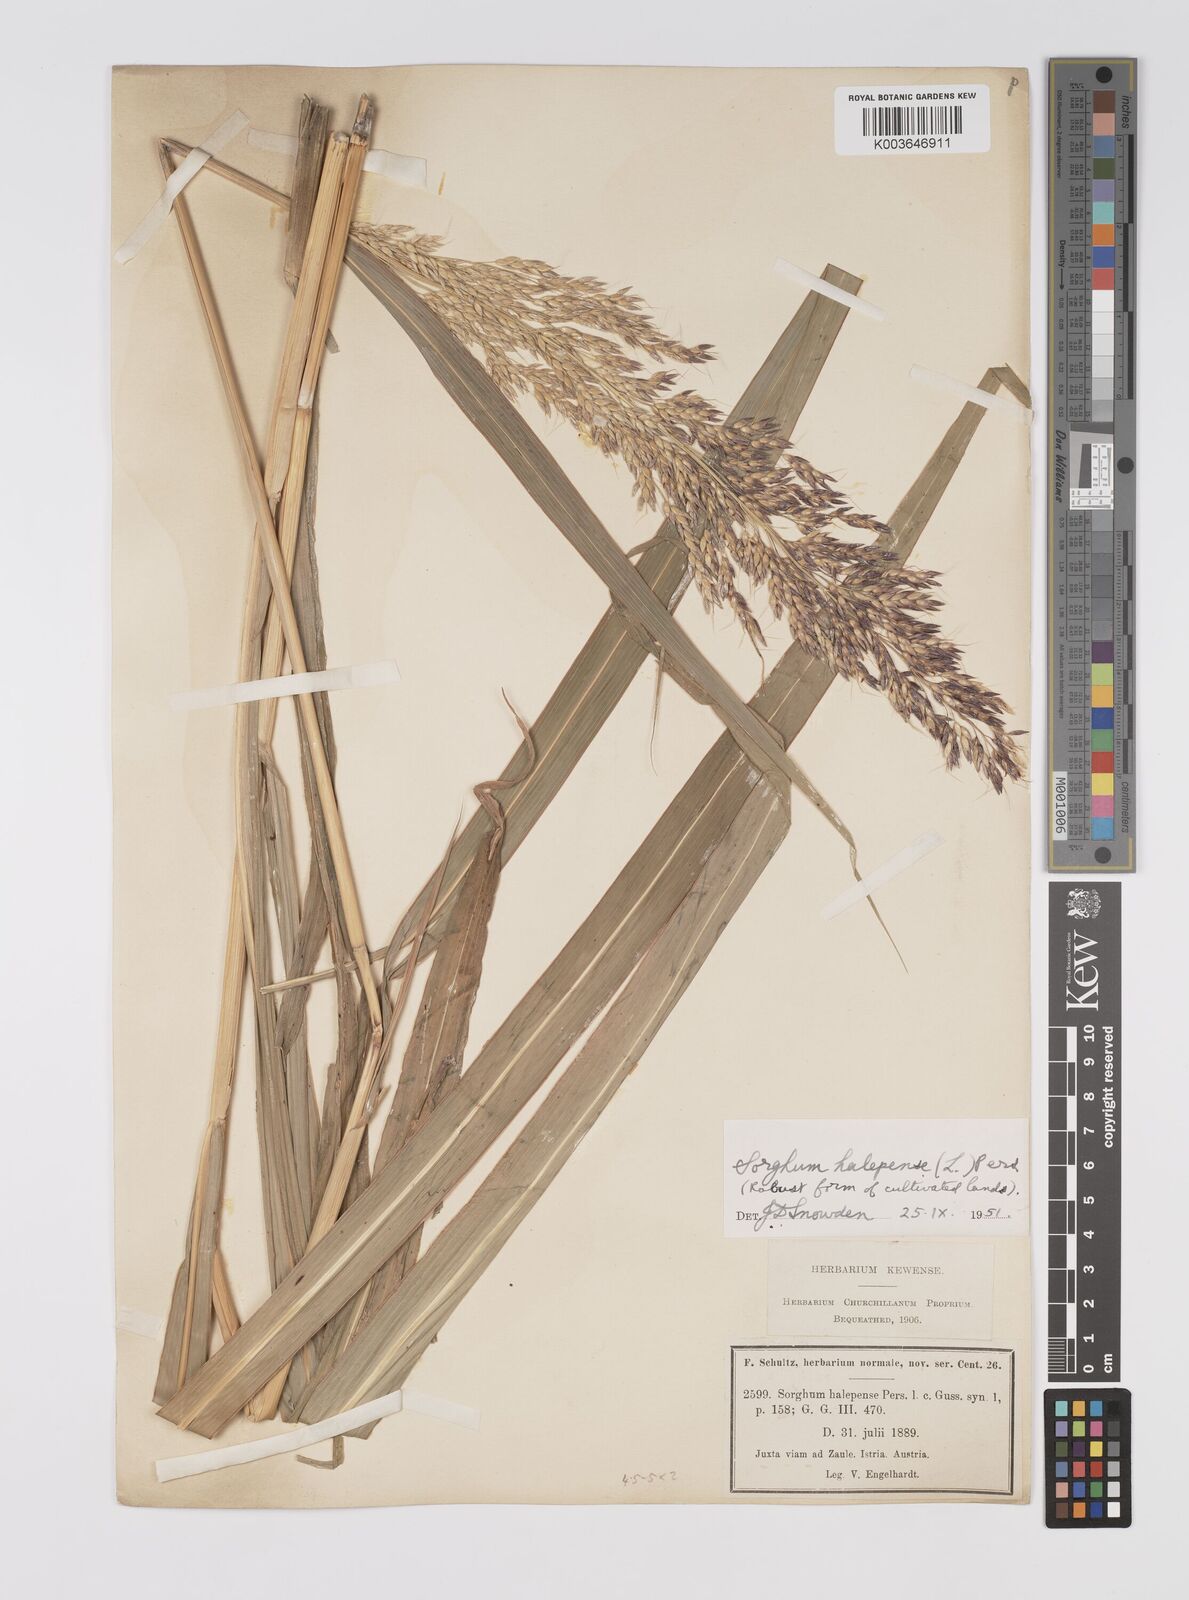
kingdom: Plantae
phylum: Tracheophyta
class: Liliopsida
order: Poales
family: Poaceae
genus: Sorghum
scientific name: Sorghum halepense
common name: Johnson-grass
